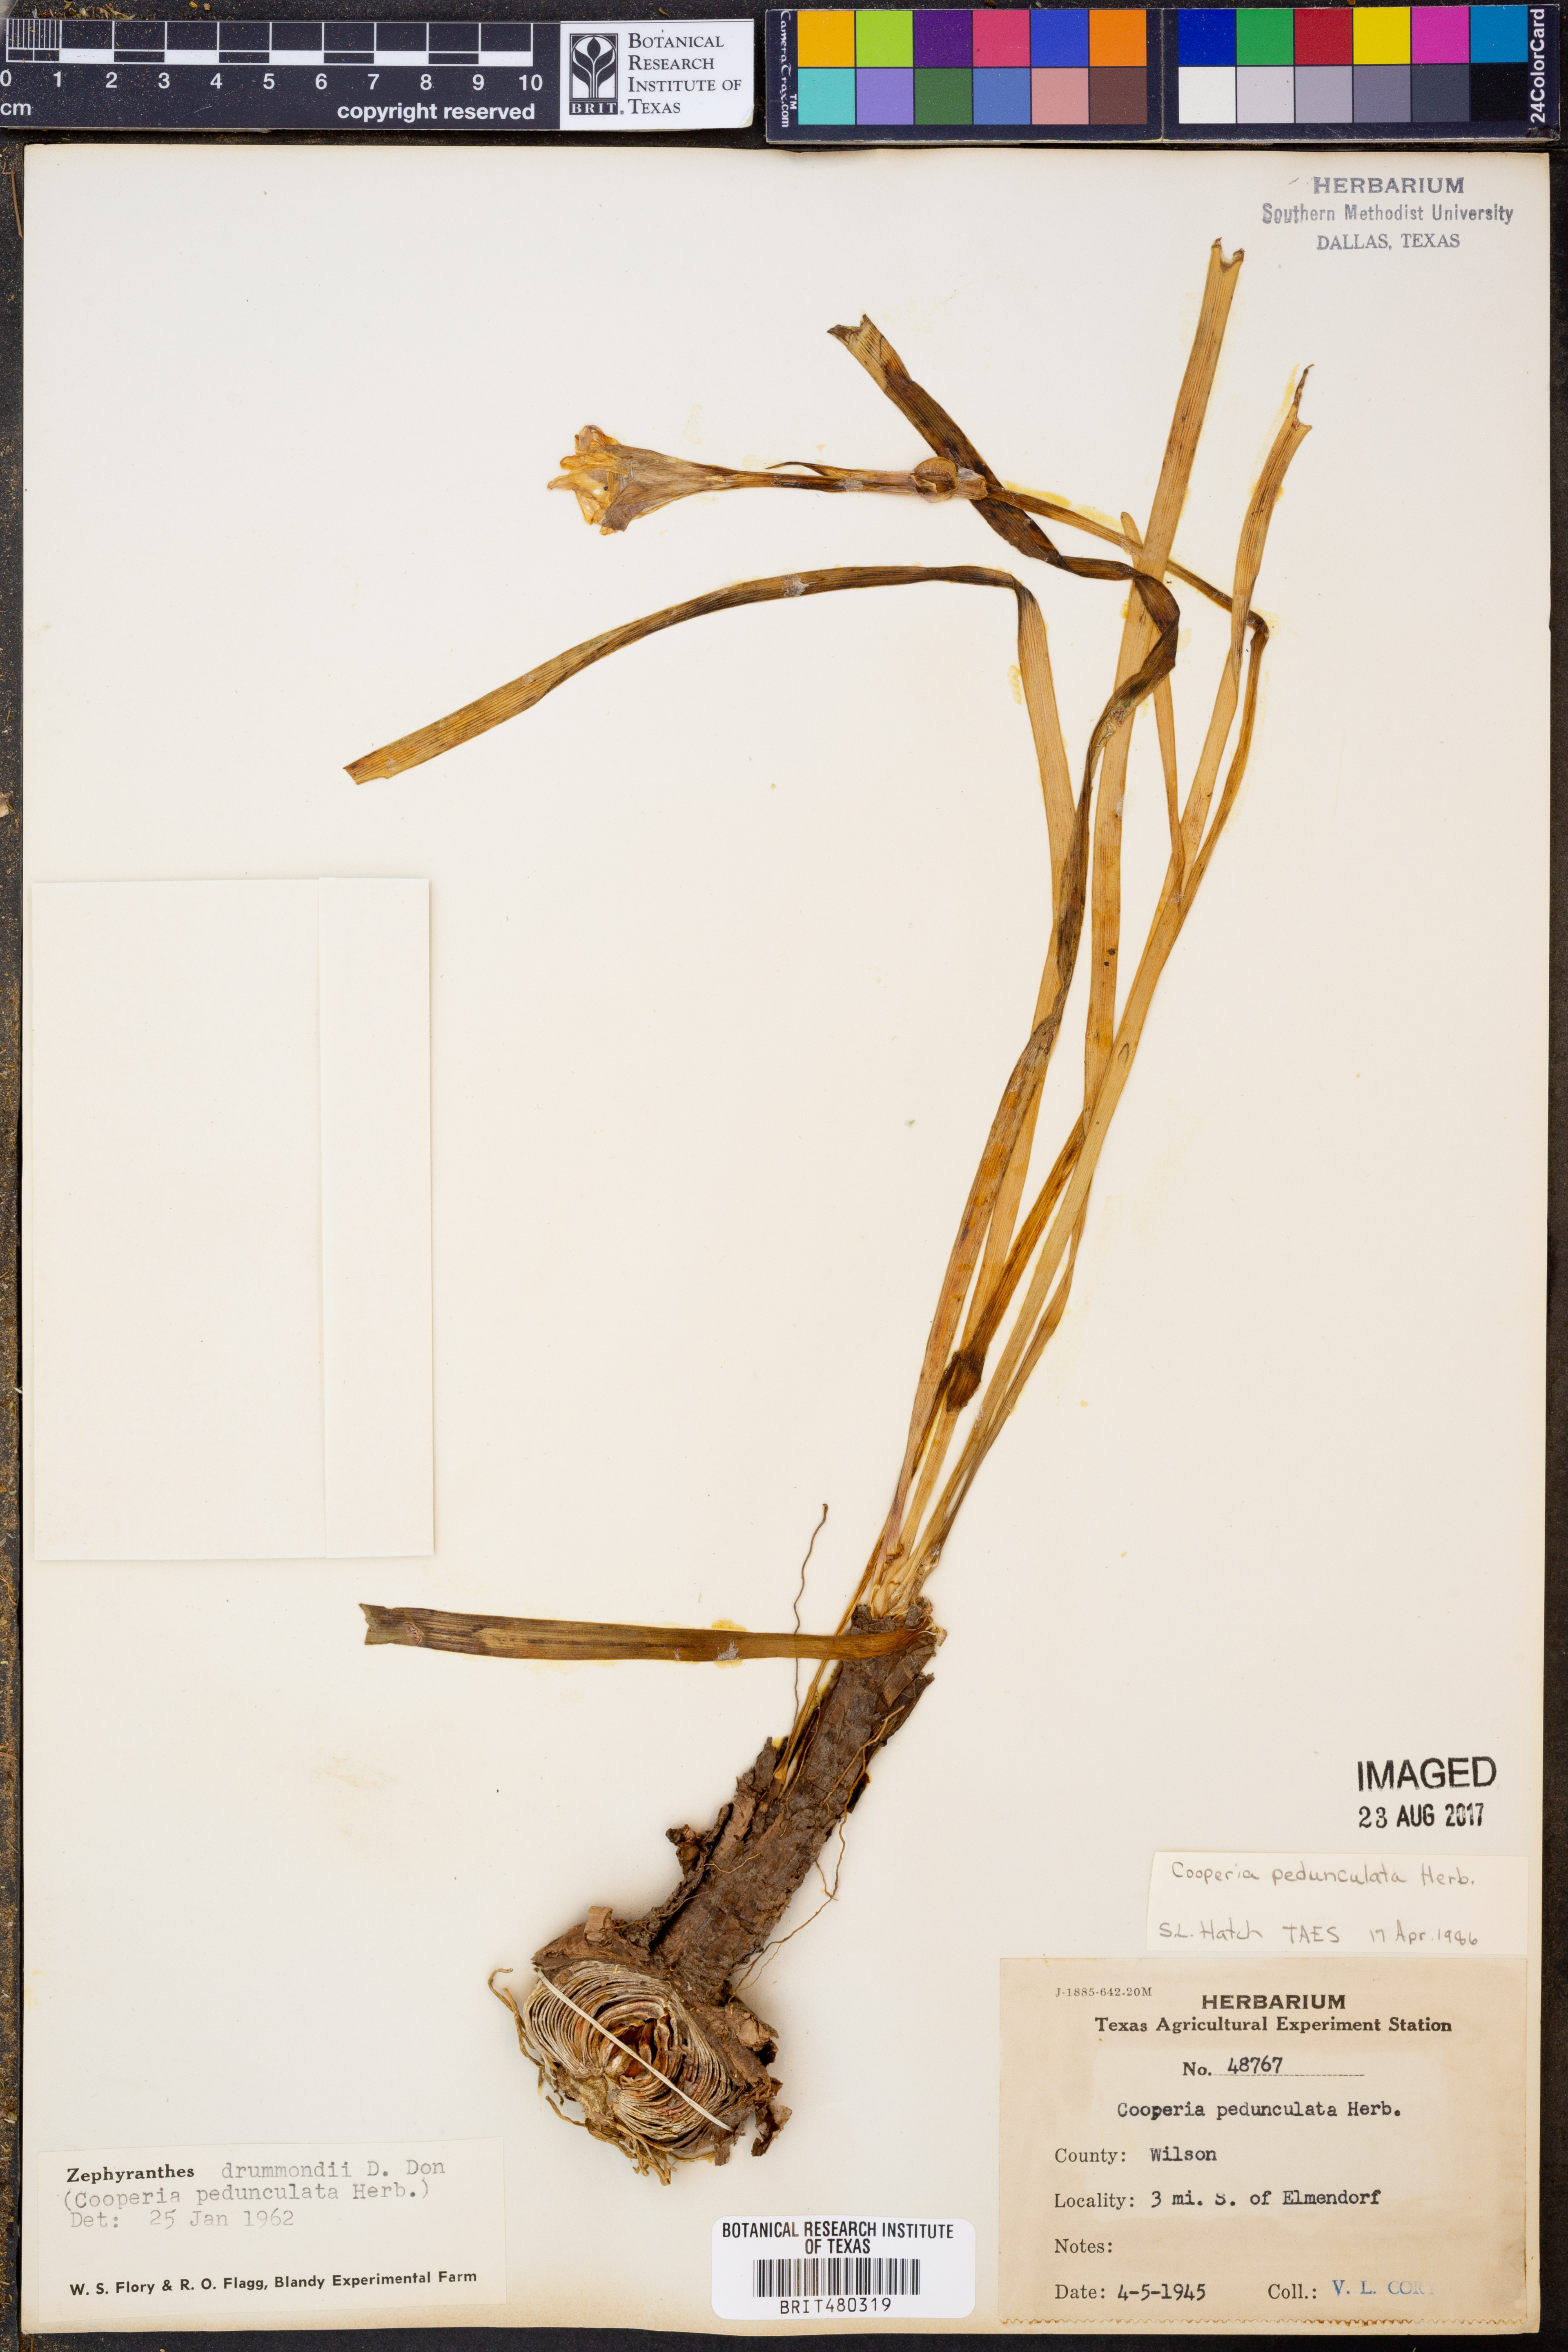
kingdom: Plantae
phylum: Tracheophyta
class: Liliopsida
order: Asparagales
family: Amaryllidaceae
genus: Zephyranthes
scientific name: Zephyranthes drummondii
